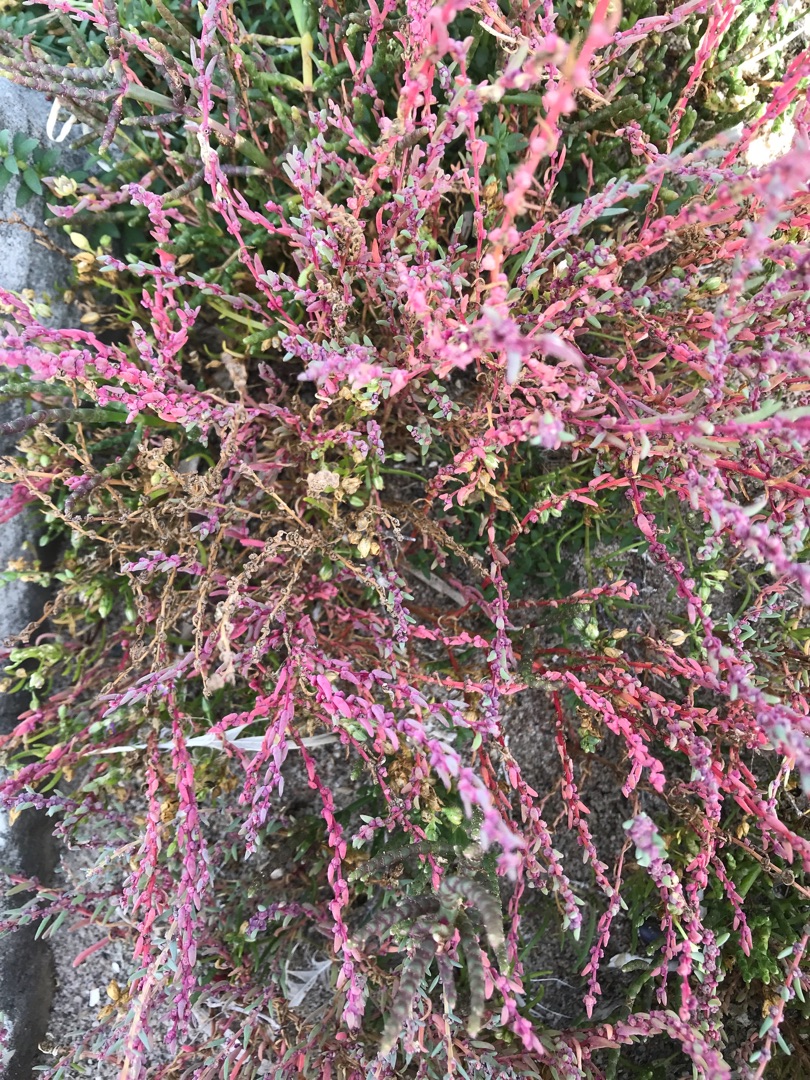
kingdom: Plantae
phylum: Tracheophyta
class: Magnoliopsida
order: Caryophyllales
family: Amaranthaceae
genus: Suaeda
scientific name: Suaeda maritima
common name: Strandgåsefod
